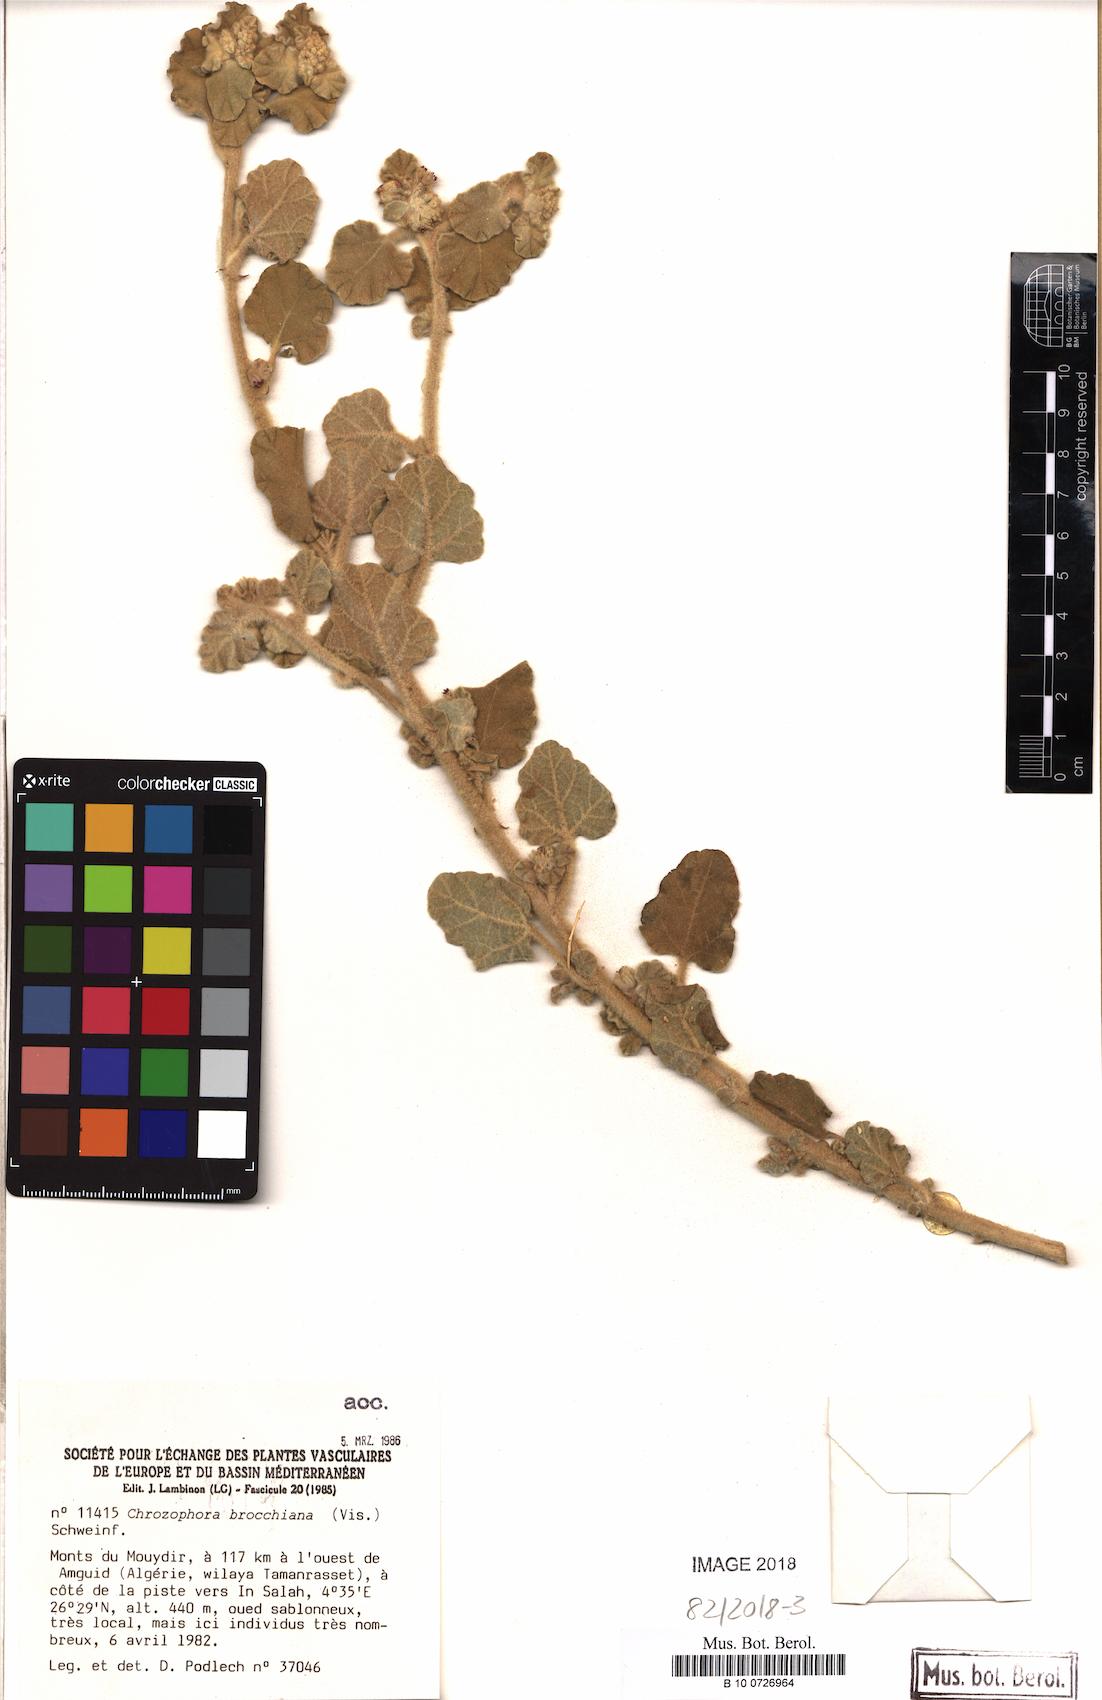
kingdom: Plantae
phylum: Tracheophyta
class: Magnoliopsida
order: Malpighiales
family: Euphorbiaceae
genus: Chrozophora
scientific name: Chrozophora brocchiana
